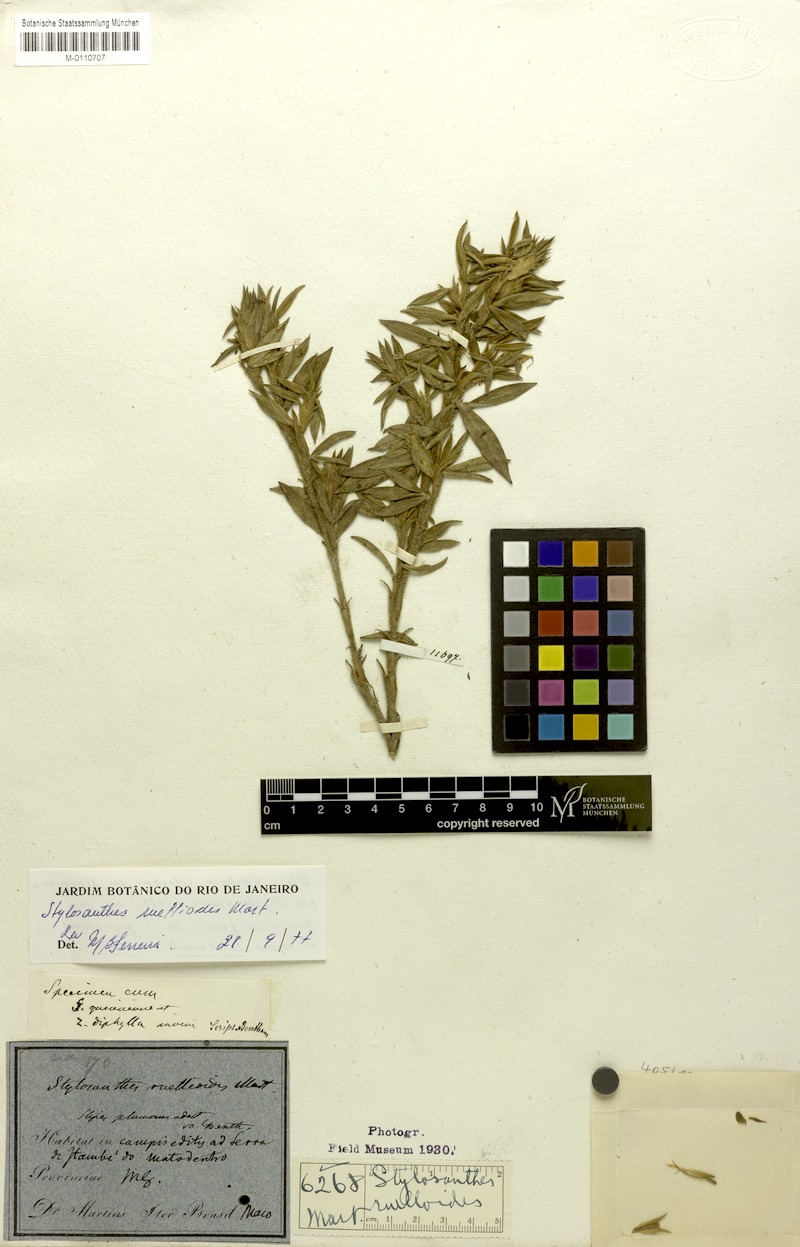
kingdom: Plantae
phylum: Tracheophyta
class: Magnoliopsida
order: Fabales
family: Fabaceae
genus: Stylosanthes
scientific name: Stylosanthes ruellioides
